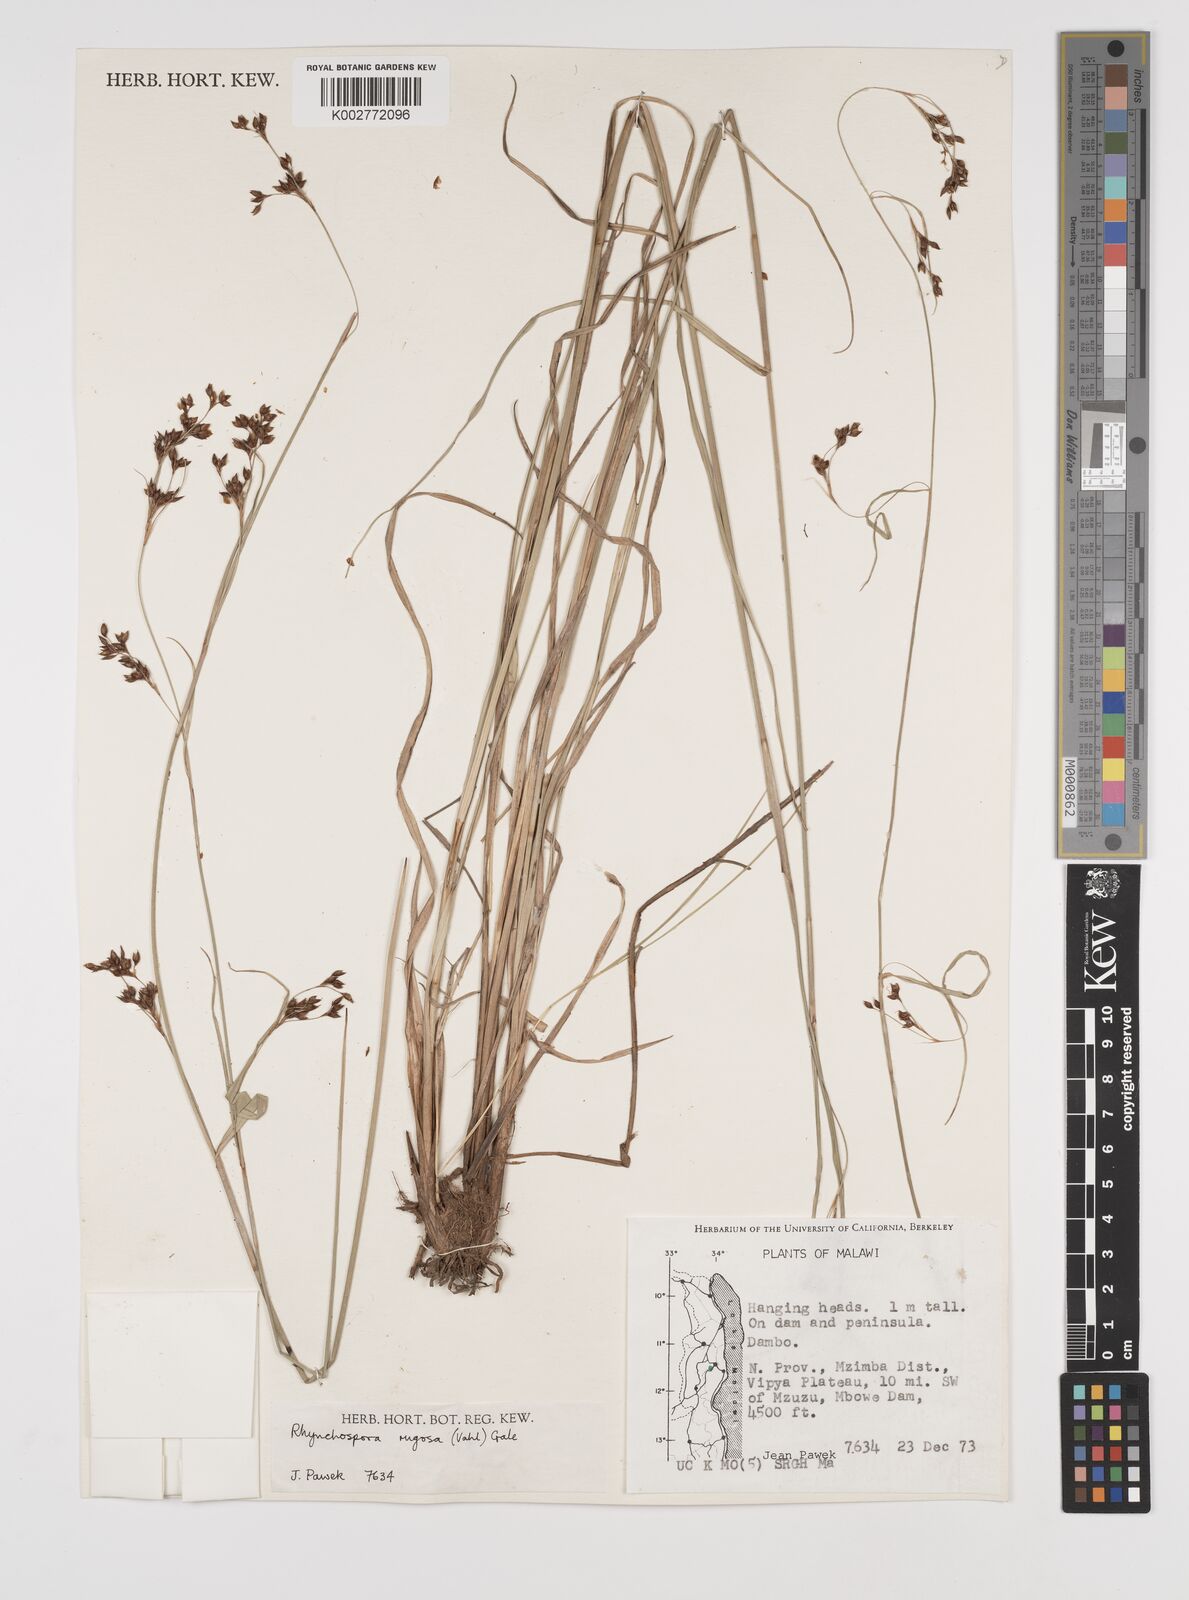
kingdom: Plantae
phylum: Tracheophyta
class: Liliopsida
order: Poales
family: Cyperaceae
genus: Rhynchospora
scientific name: Rhynchospora rugosa
